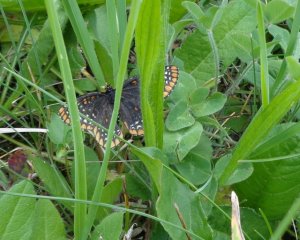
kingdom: Animalia
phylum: Arthropoda
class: Insecta
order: Lepidoptera
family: Nymphalidae
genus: Euphydryas
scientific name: Euphydryas phaeton
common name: Baltimore Checkerspot
